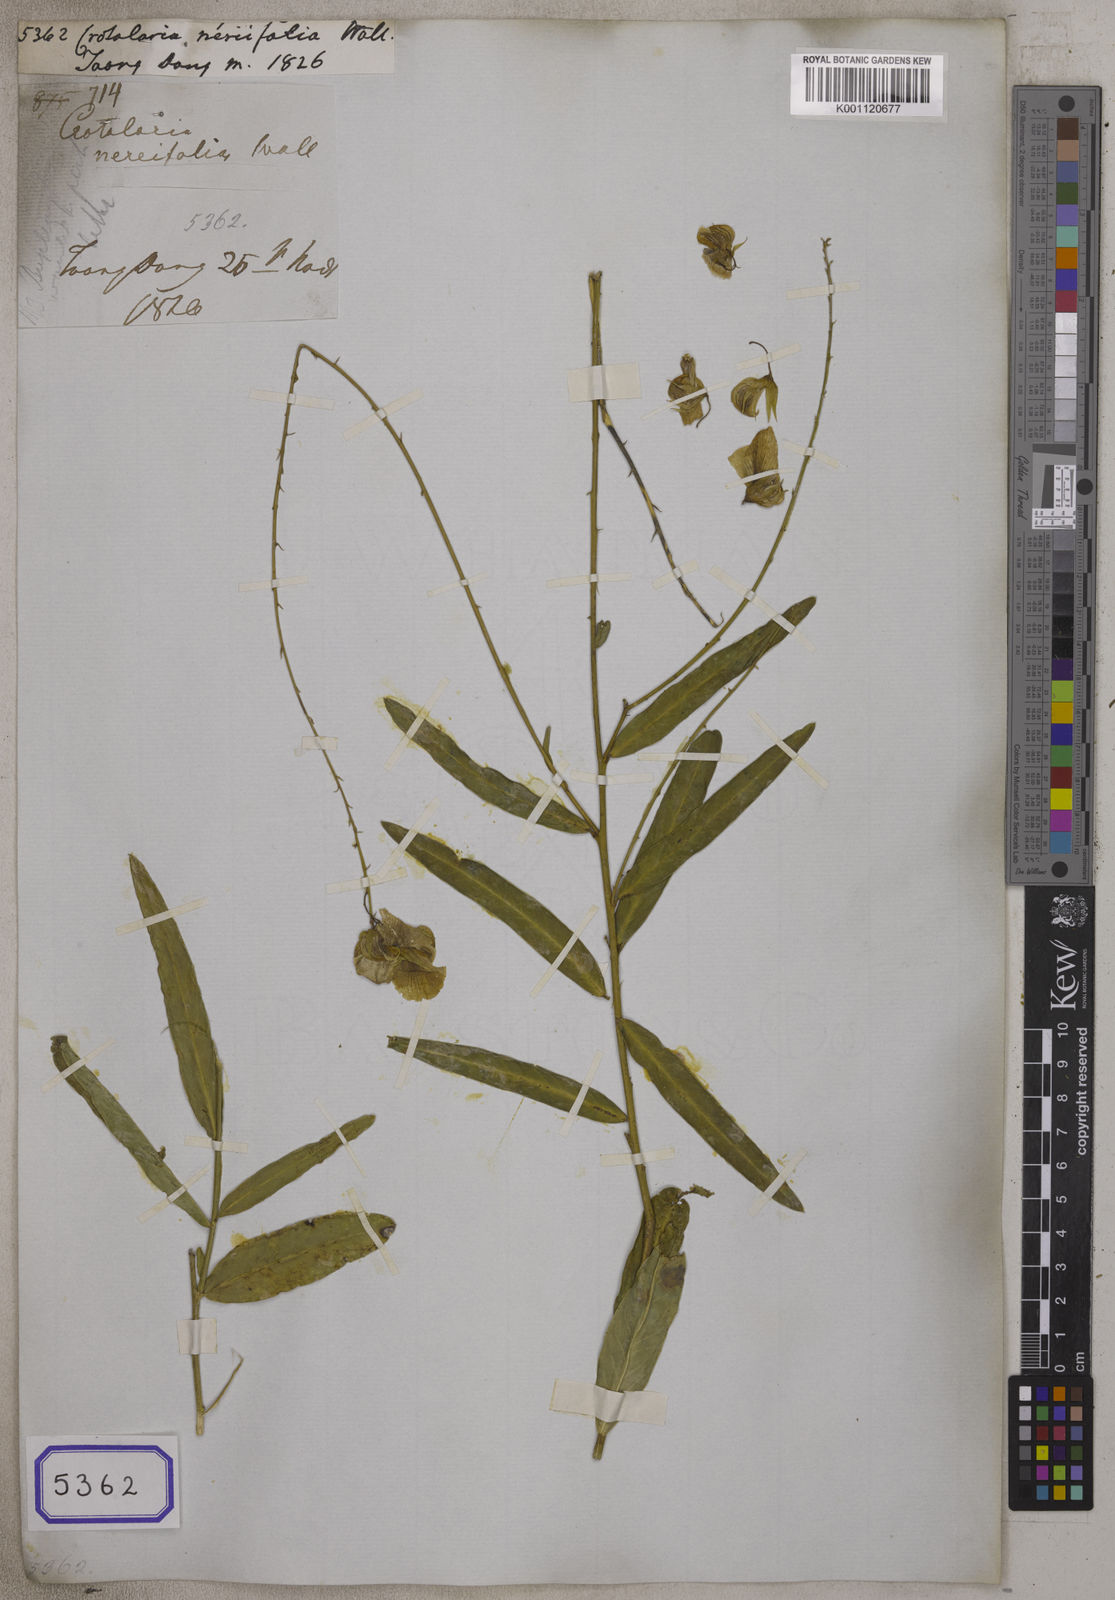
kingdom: Plantae
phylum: Tracheophyta
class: Magnoliopsida
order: Fabales
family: Fabaceae
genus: Crotalaria
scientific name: Crotalaria
